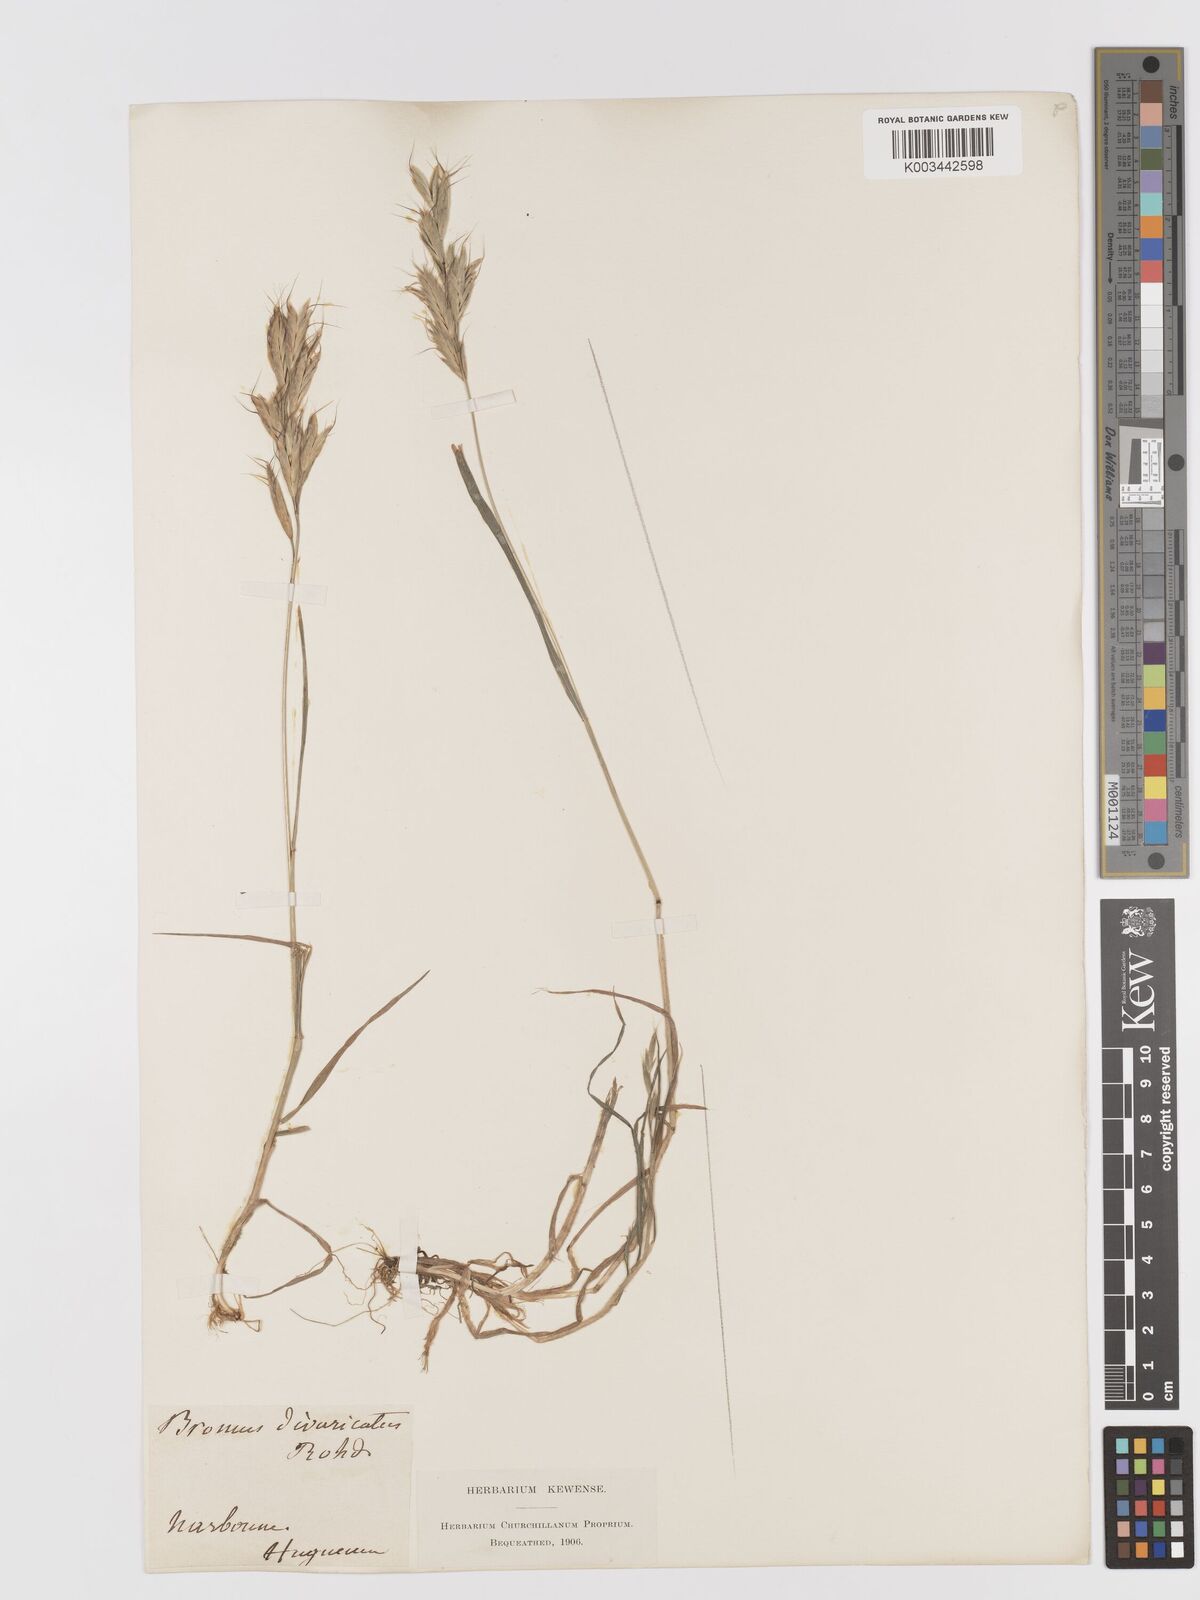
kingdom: Plantae
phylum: Tracheophyta
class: Liliopsida
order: Poales
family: Poaceae
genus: Bromus
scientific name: Bromus lanceolatus
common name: Mediterranean brome
